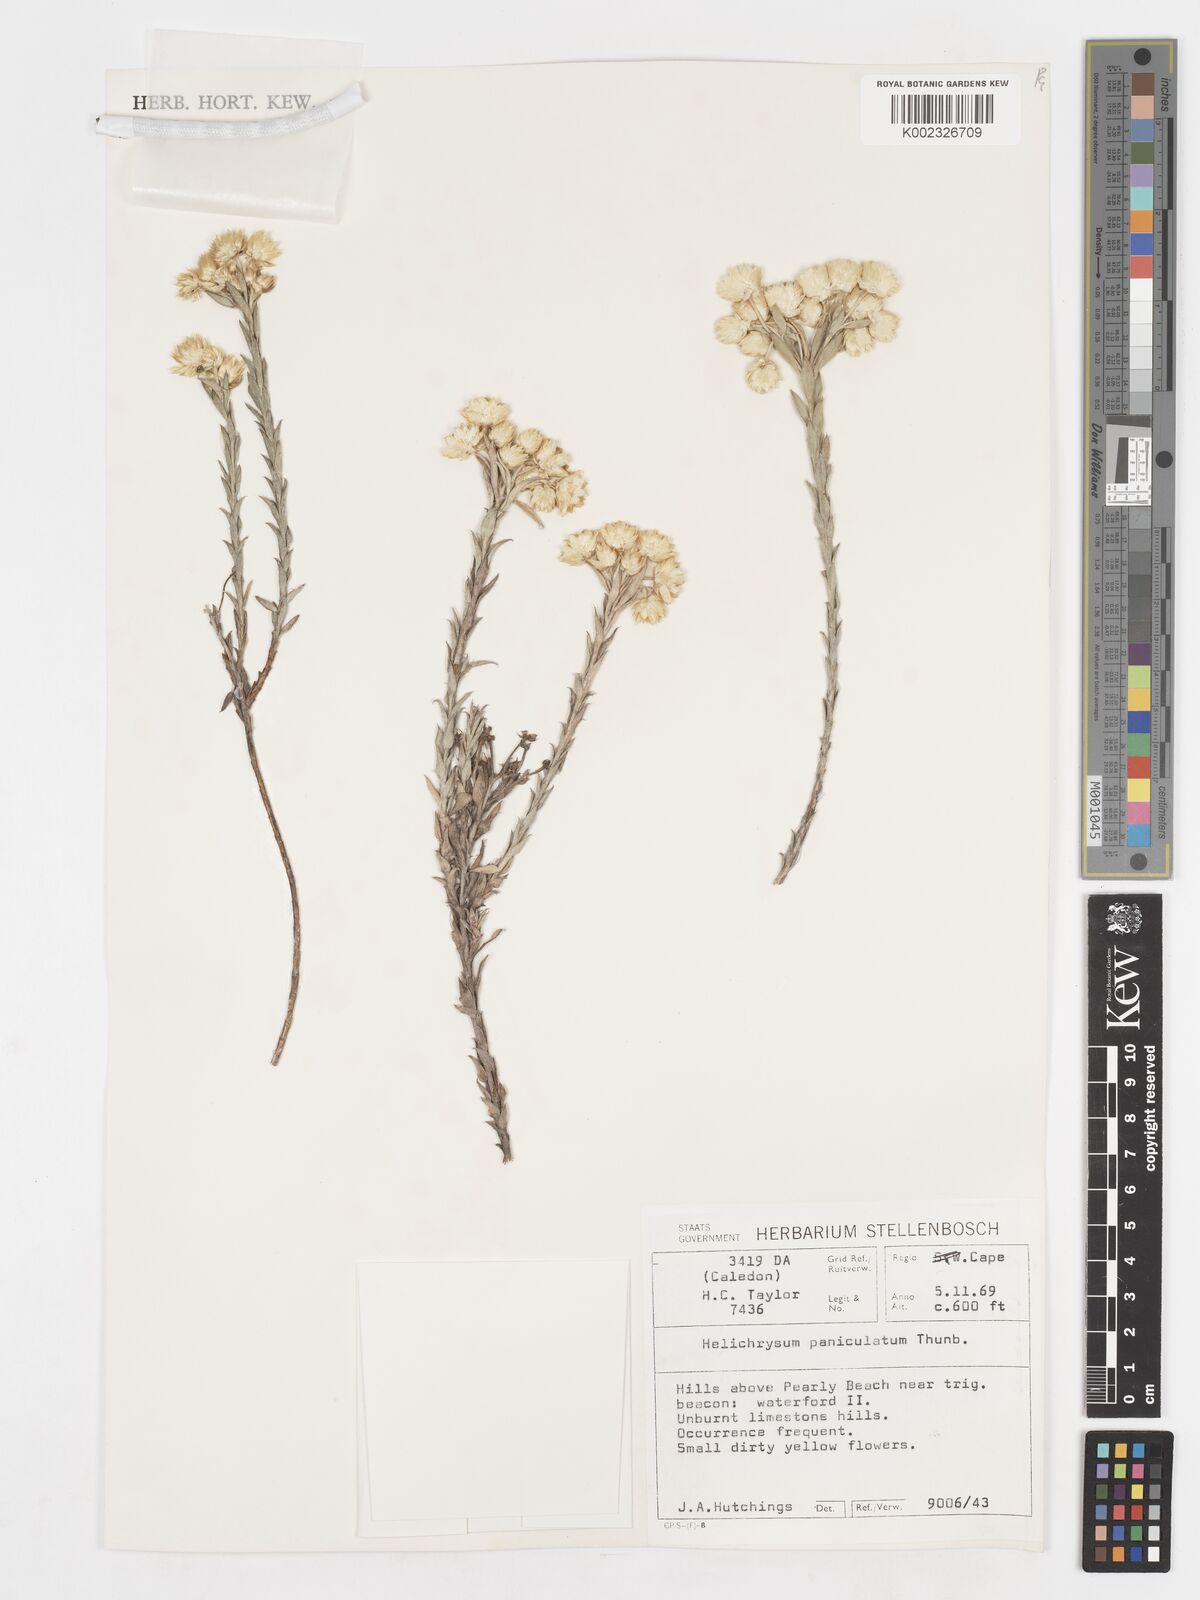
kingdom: Plantae
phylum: Tracheophyta
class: Magnoliopsida
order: Asterales
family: Asteraceae
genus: Achyranthemum
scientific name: Achyranthemum paniculatum
